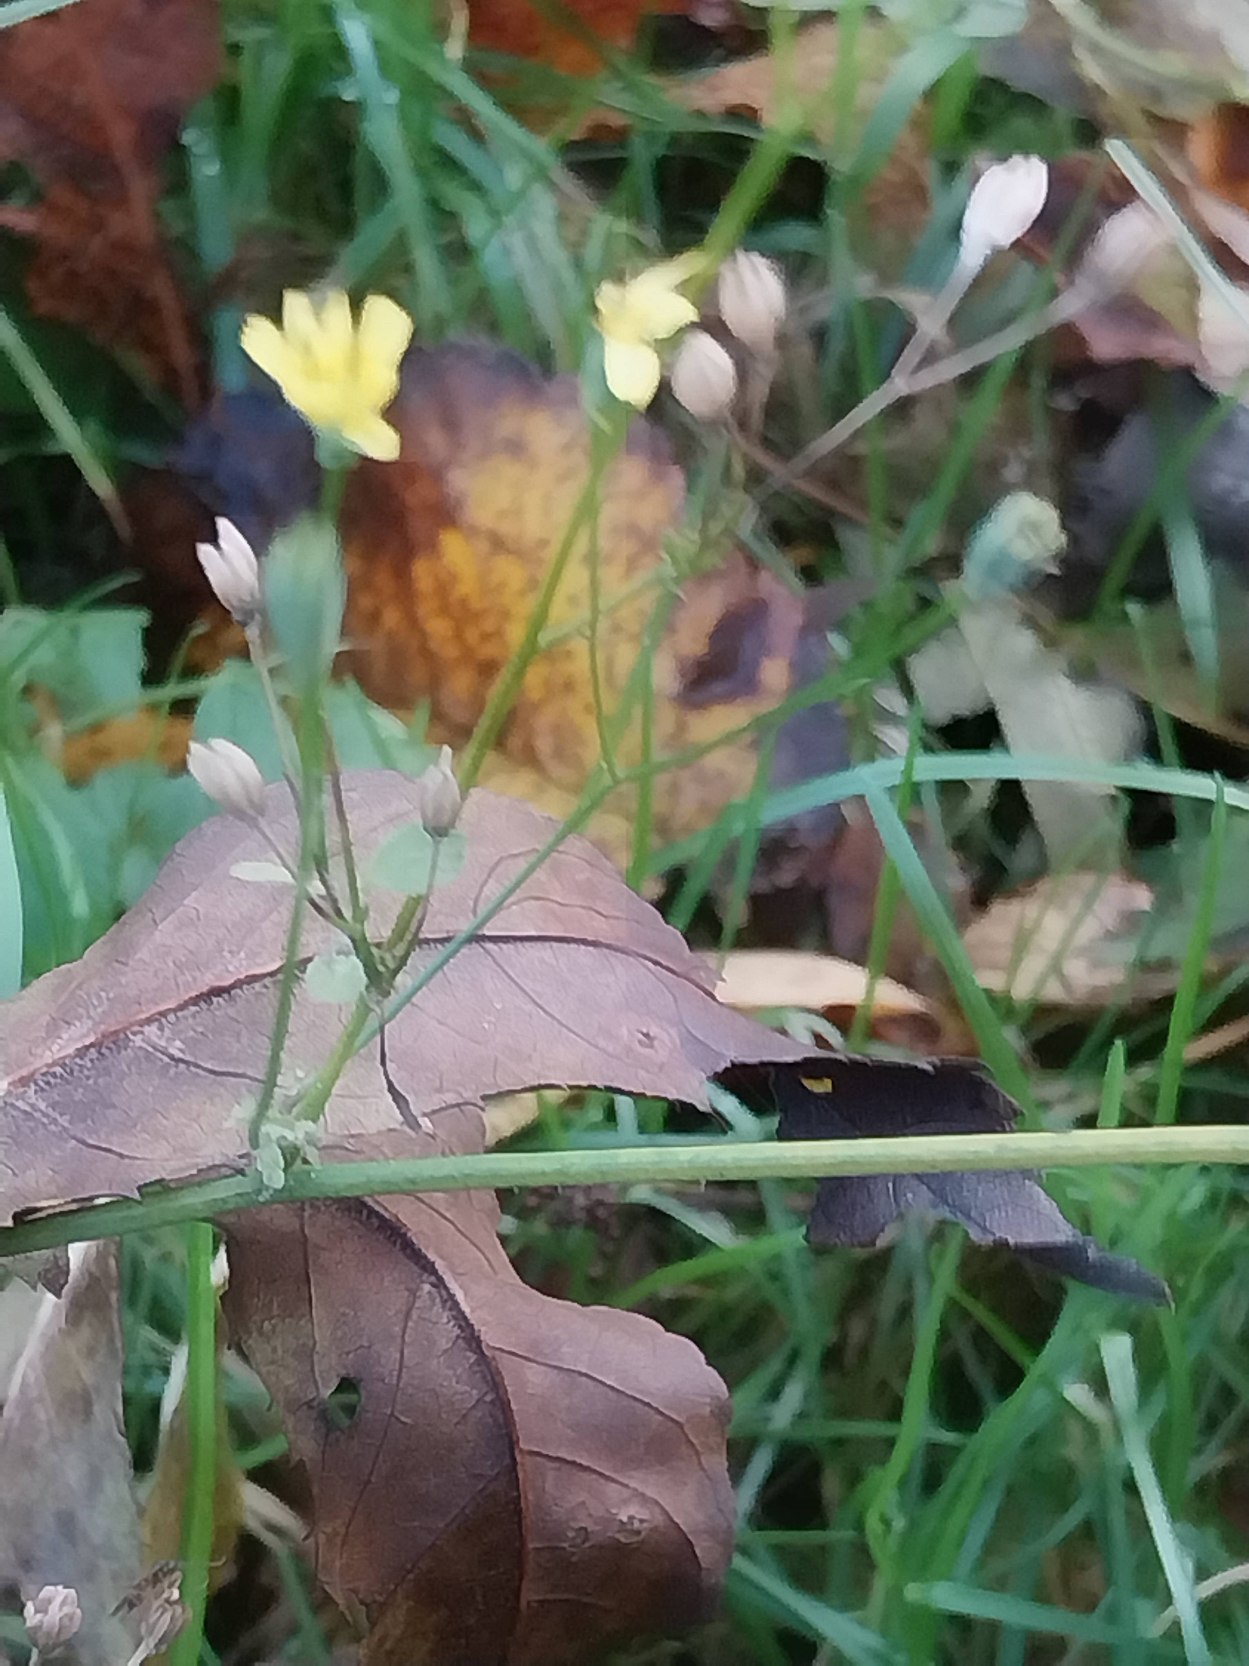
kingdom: Plantae
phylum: Tracheophyta
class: Magnoliopsida
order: Asterales
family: Asteraceae
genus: Lapsana
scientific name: Lapsana communis
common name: Haremad
